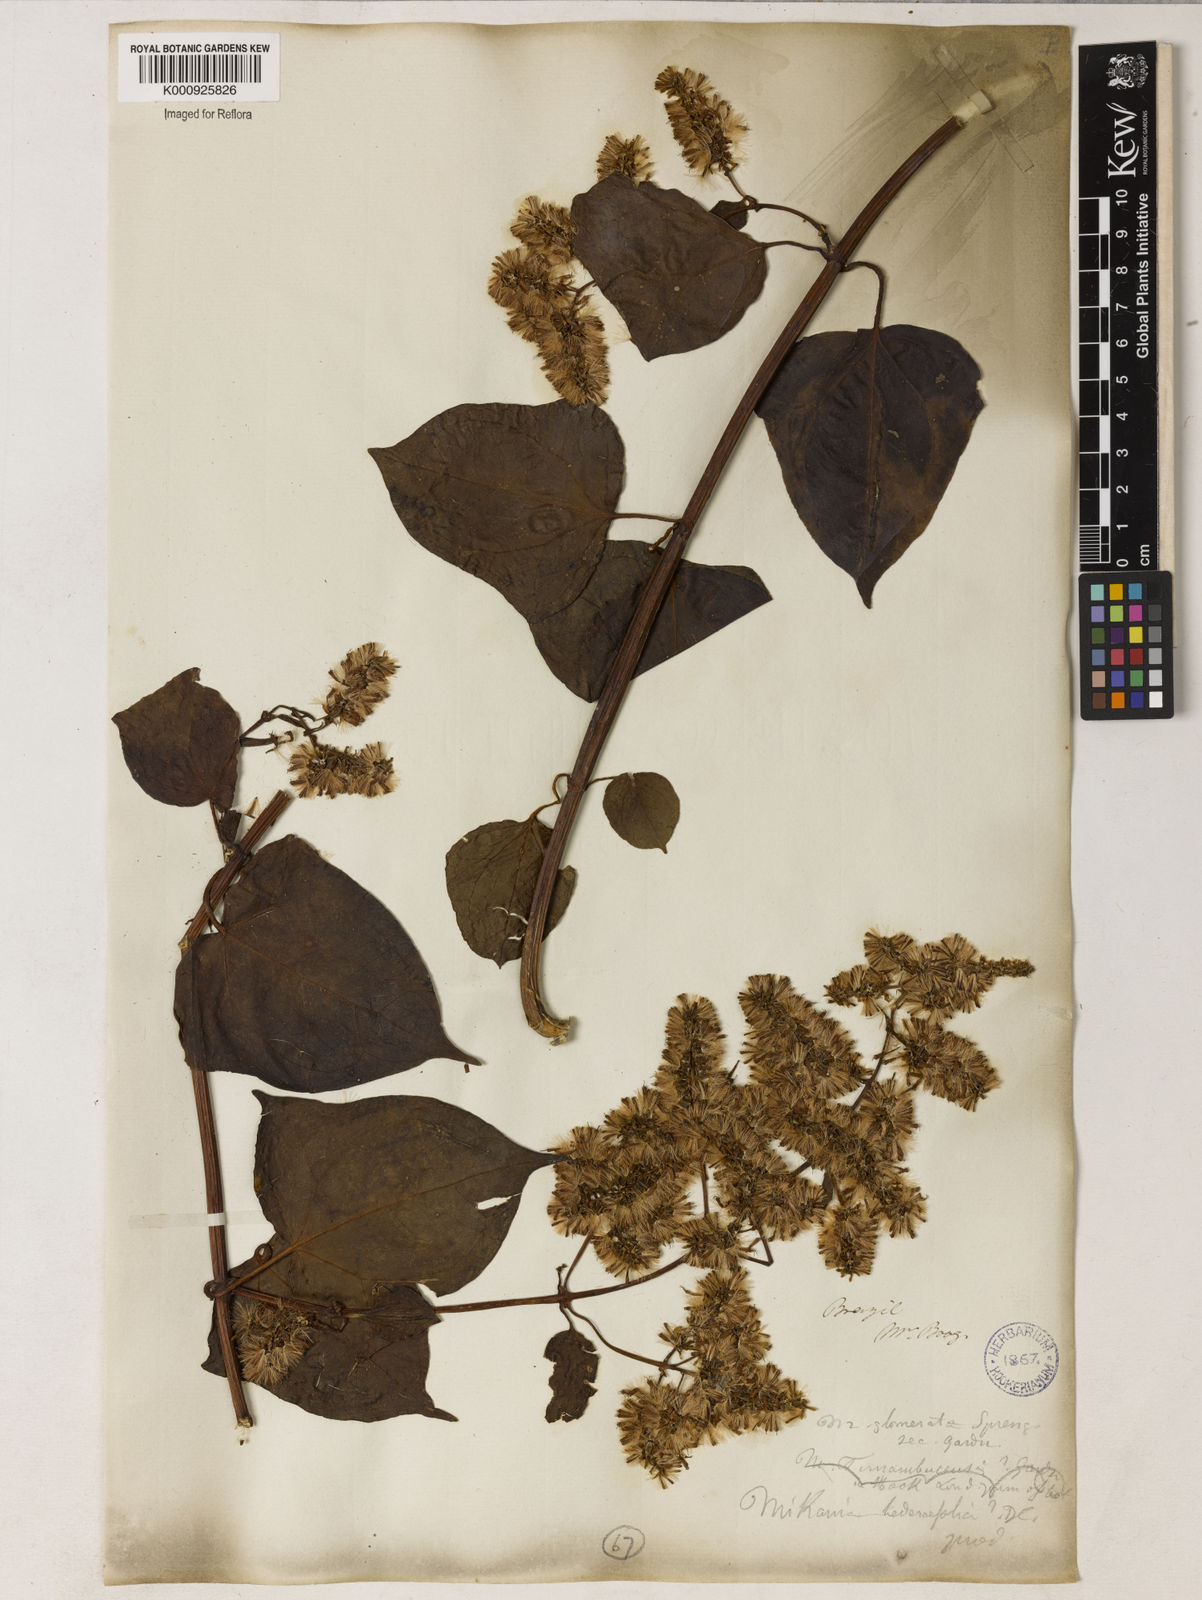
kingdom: Plantae
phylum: Tracheophyta
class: Magnoliopsida
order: Asterales
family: Asteraceae
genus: Mikania
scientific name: Mikania glomerata
